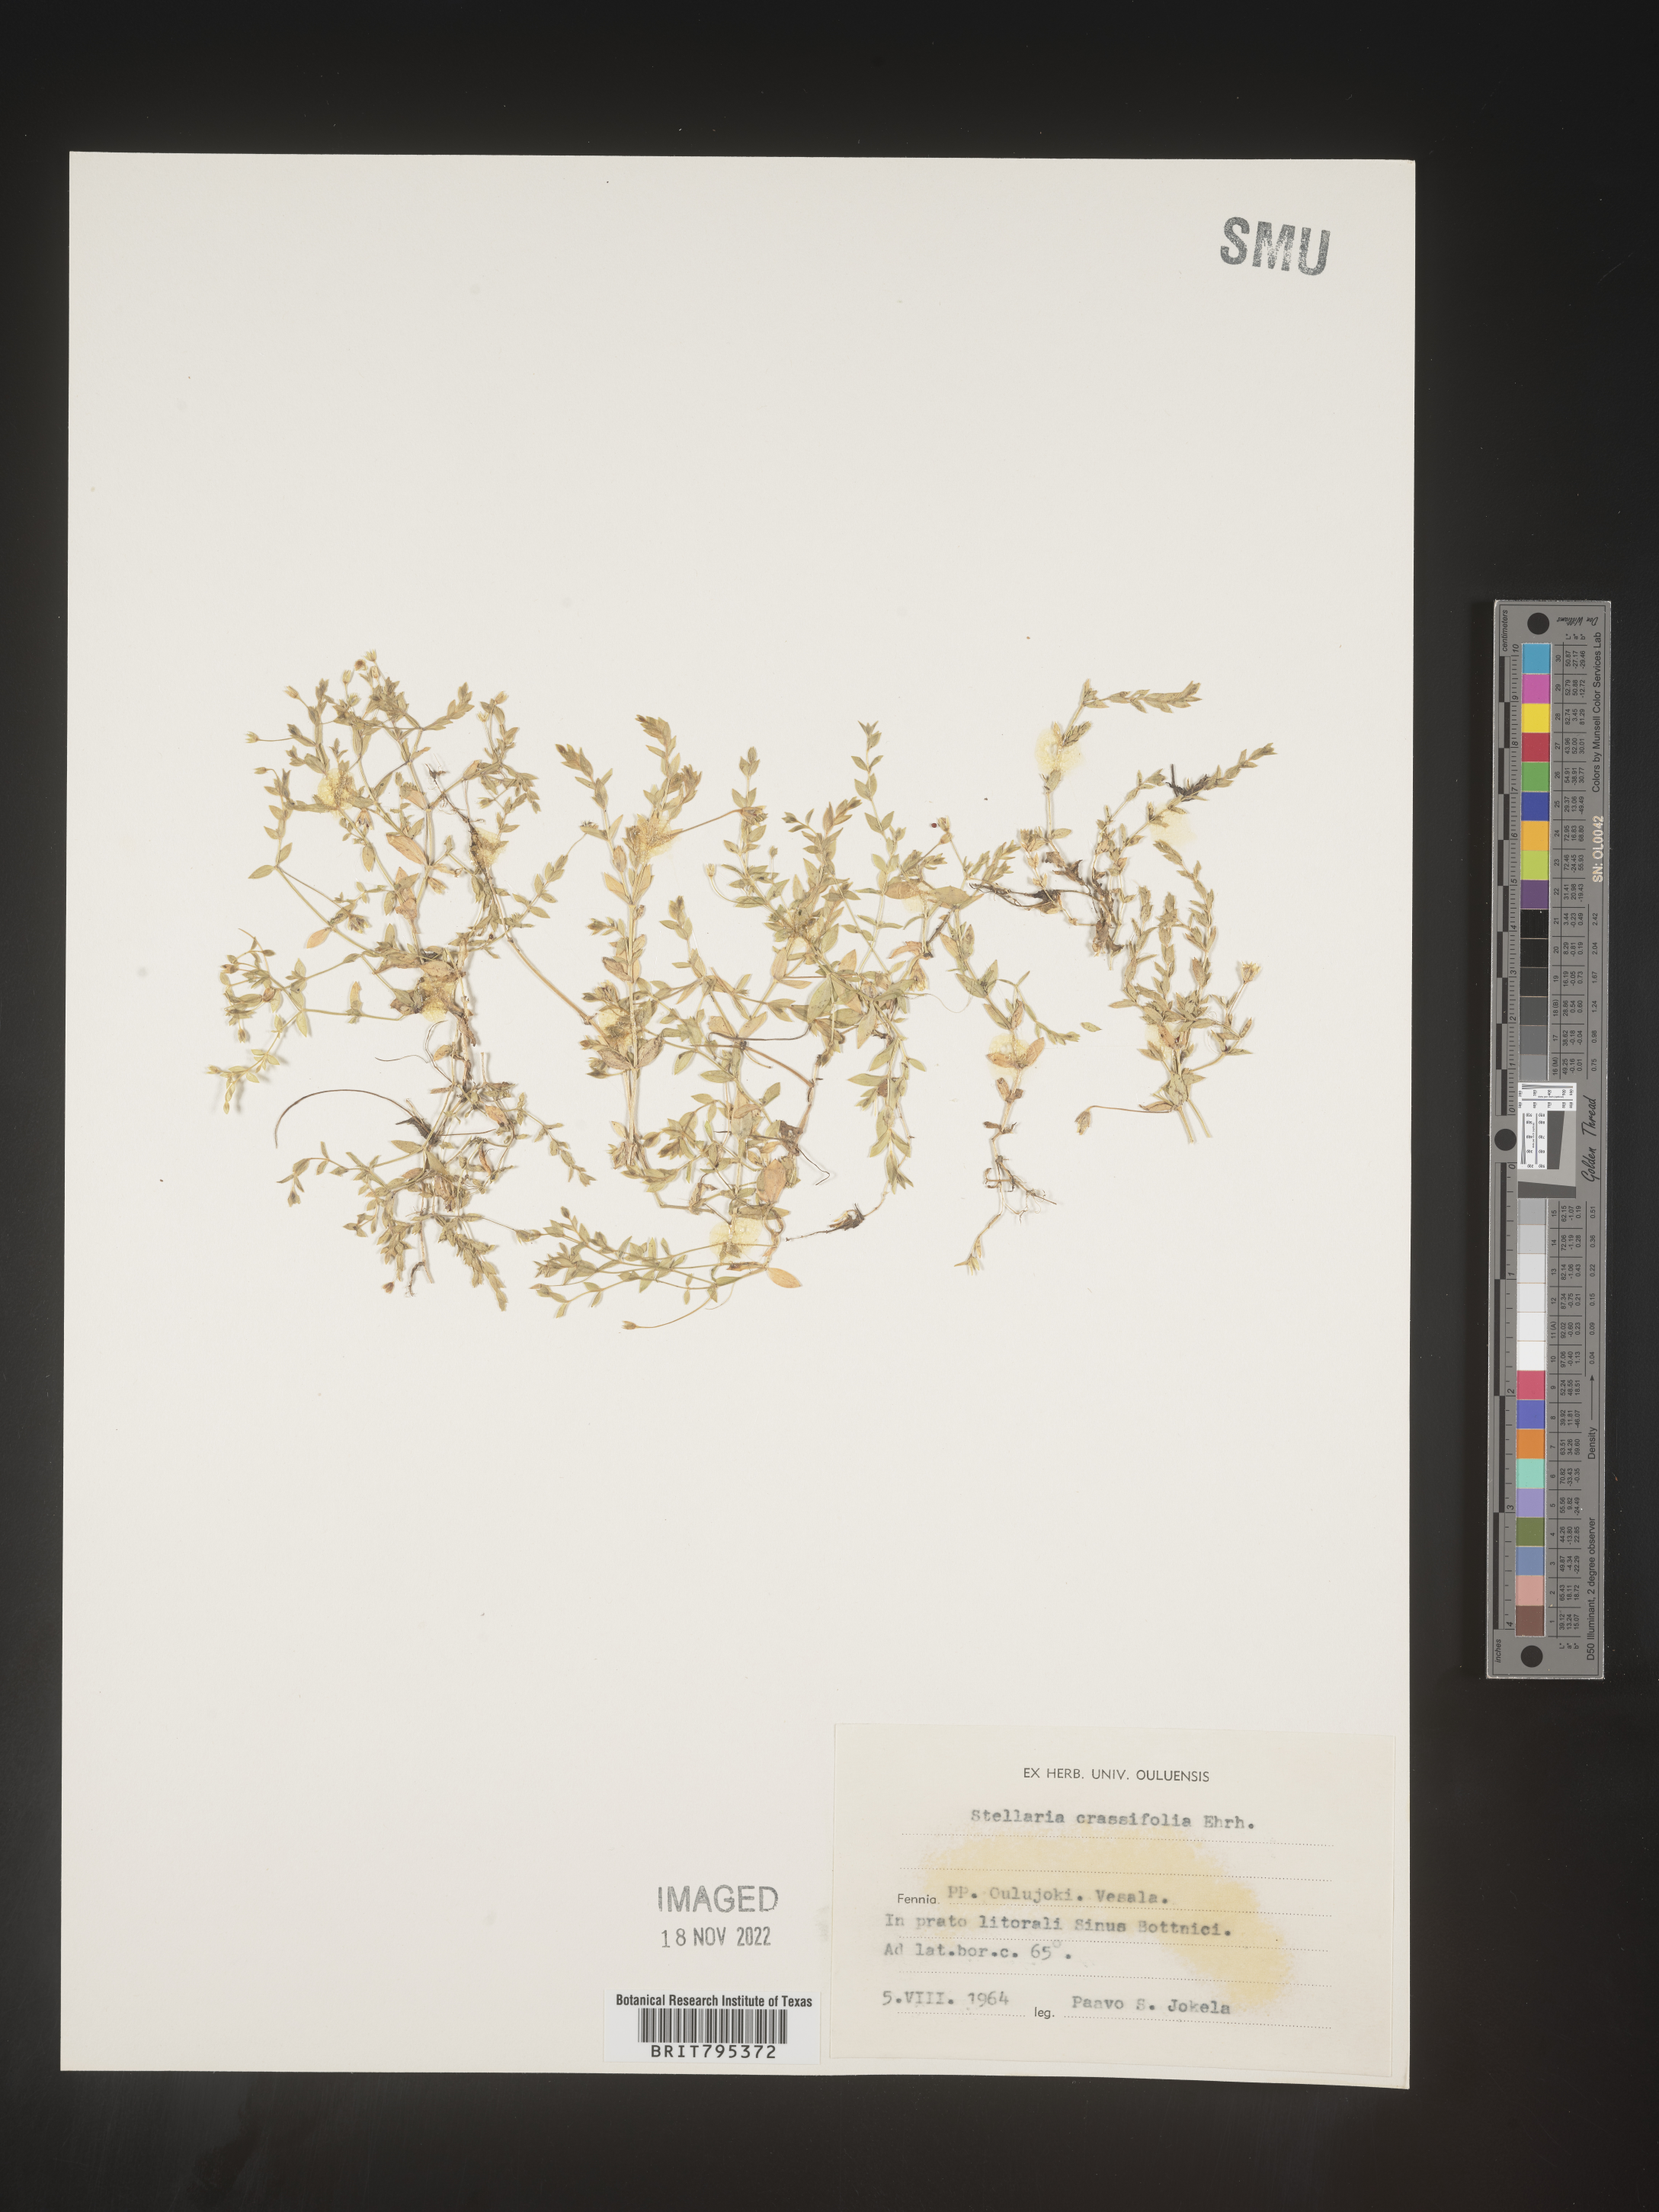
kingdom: Plantae
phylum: Tracheophyta
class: Magnoliopsida
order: Caryophyllales
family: Caryophyllaceae
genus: Stellaria
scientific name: Stellaria
